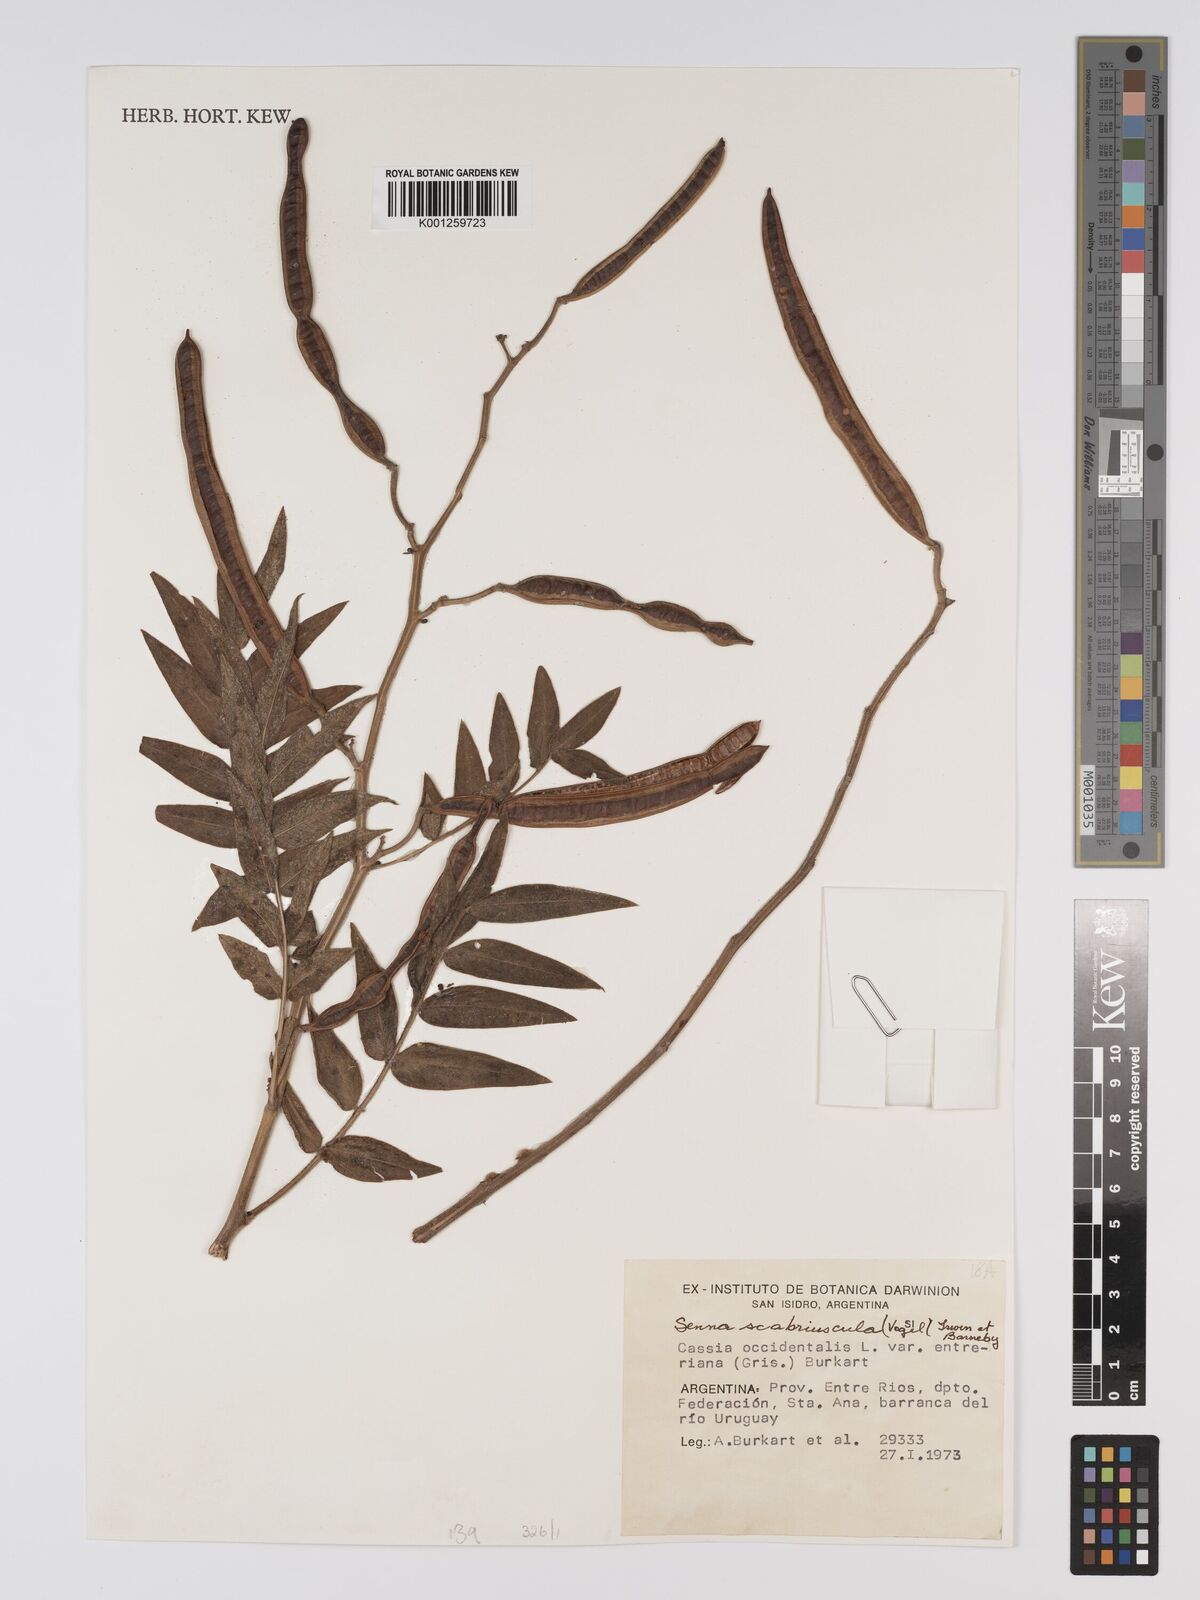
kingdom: Plantae
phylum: Tracheophyta
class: Magnoliopsida
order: Fabales
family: Fabaceae
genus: Senna
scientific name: Senna
